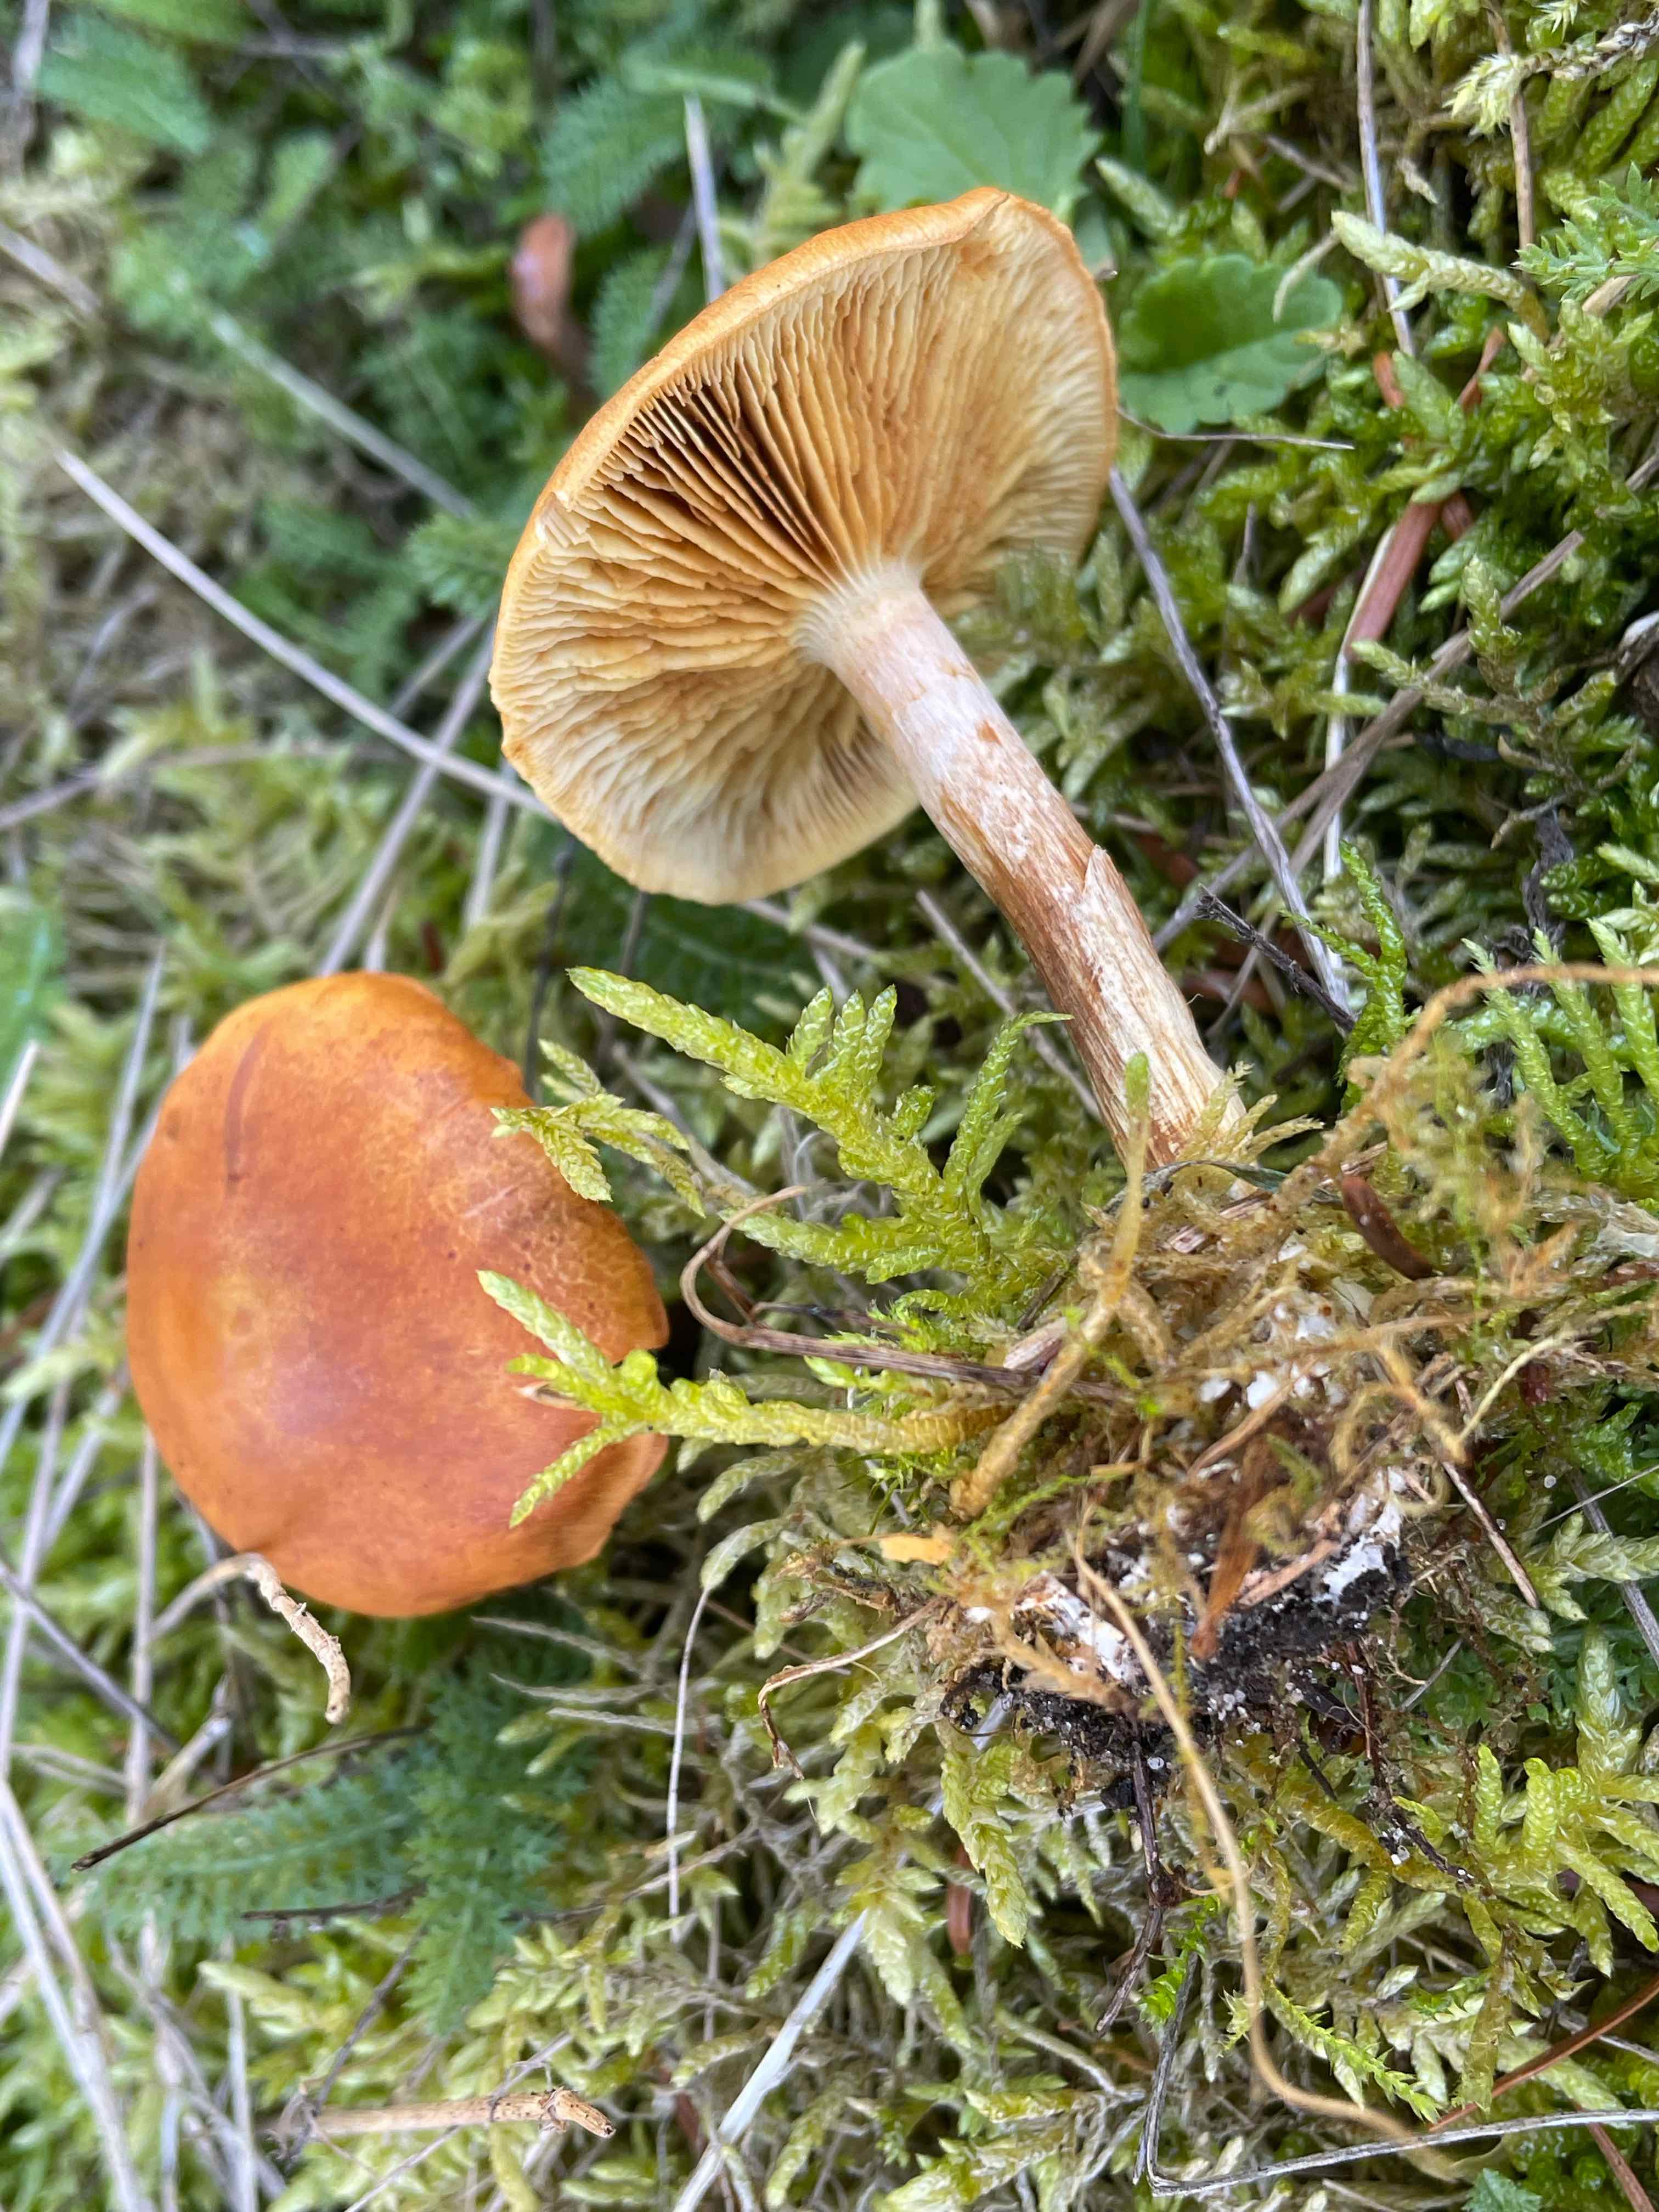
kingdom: Fungi
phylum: Basidiomycota
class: Agaricomycetes
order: Agaricales
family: Hymenogastraceae
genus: Gymnopilus
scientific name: Gymnopilus penetrans
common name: plettet flammehat
